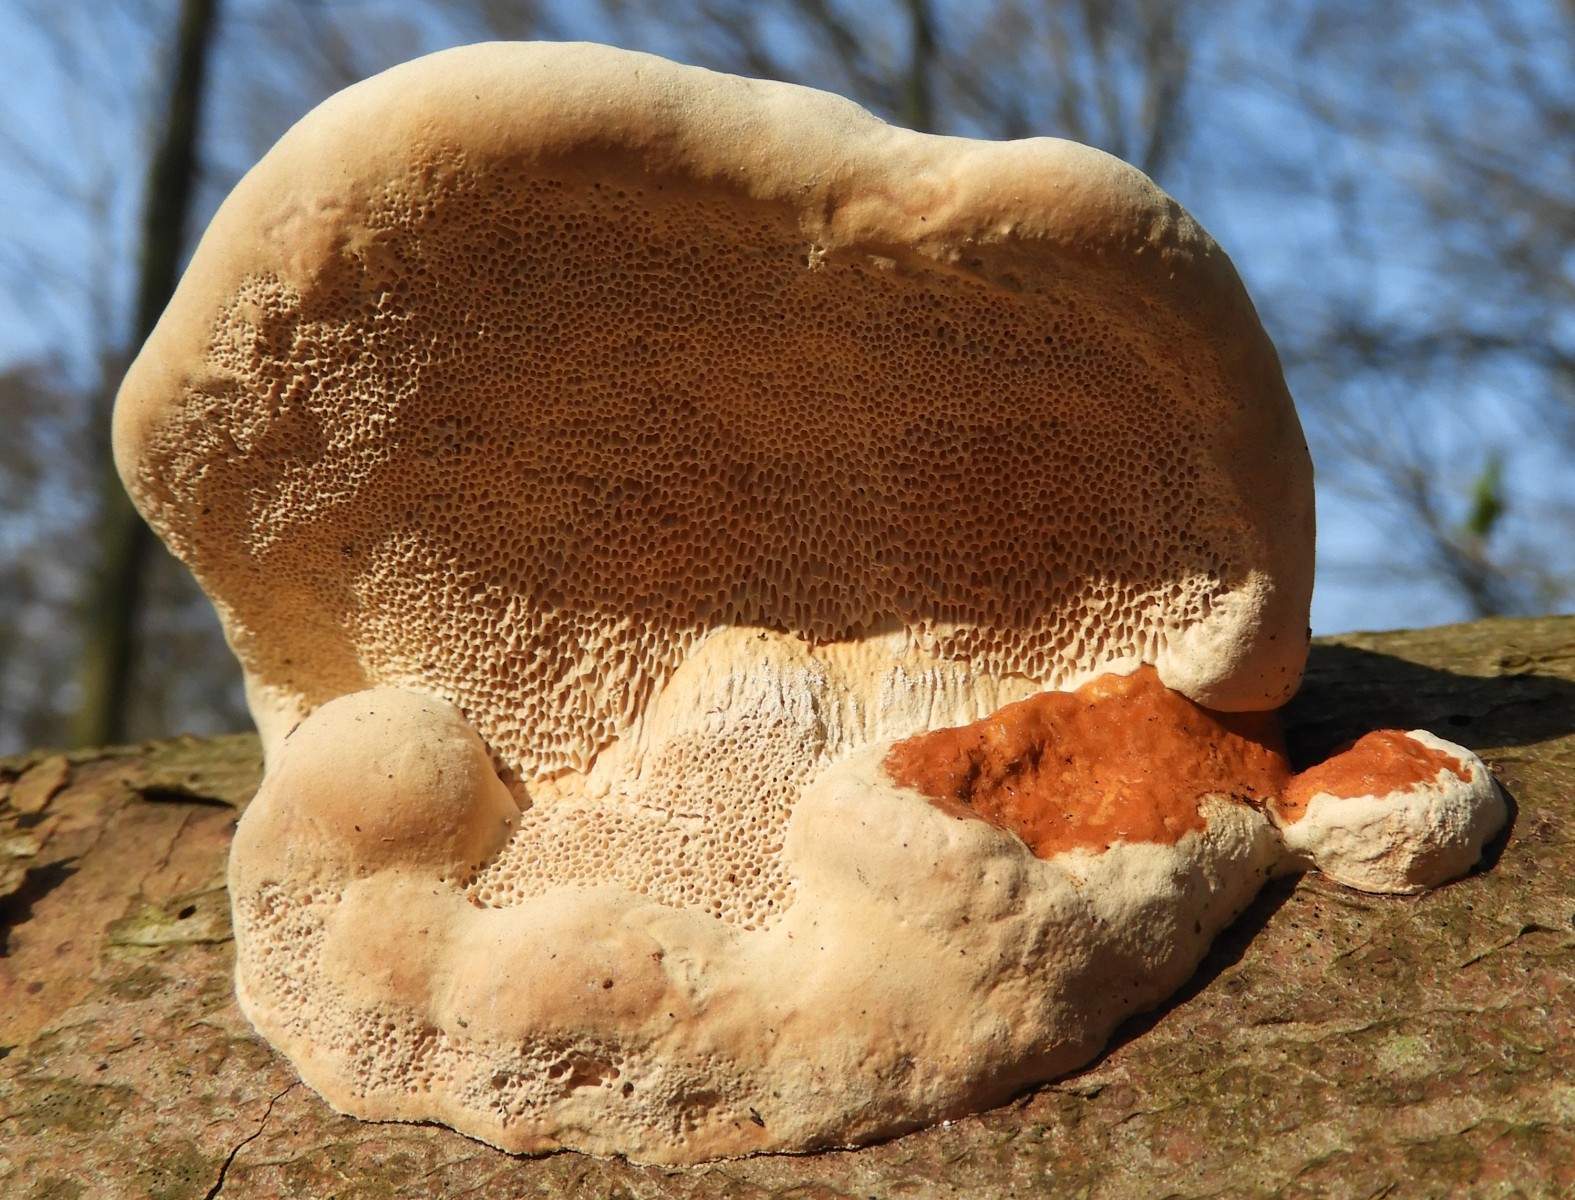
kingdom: Fungi
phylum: Basidiomycota
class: Agaricomycetes
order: Polyporales
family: Fomitopsidaceae
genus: Fomitopsis
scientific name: Fomitopsis pinicola
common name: randbæltet hovporesvamp
